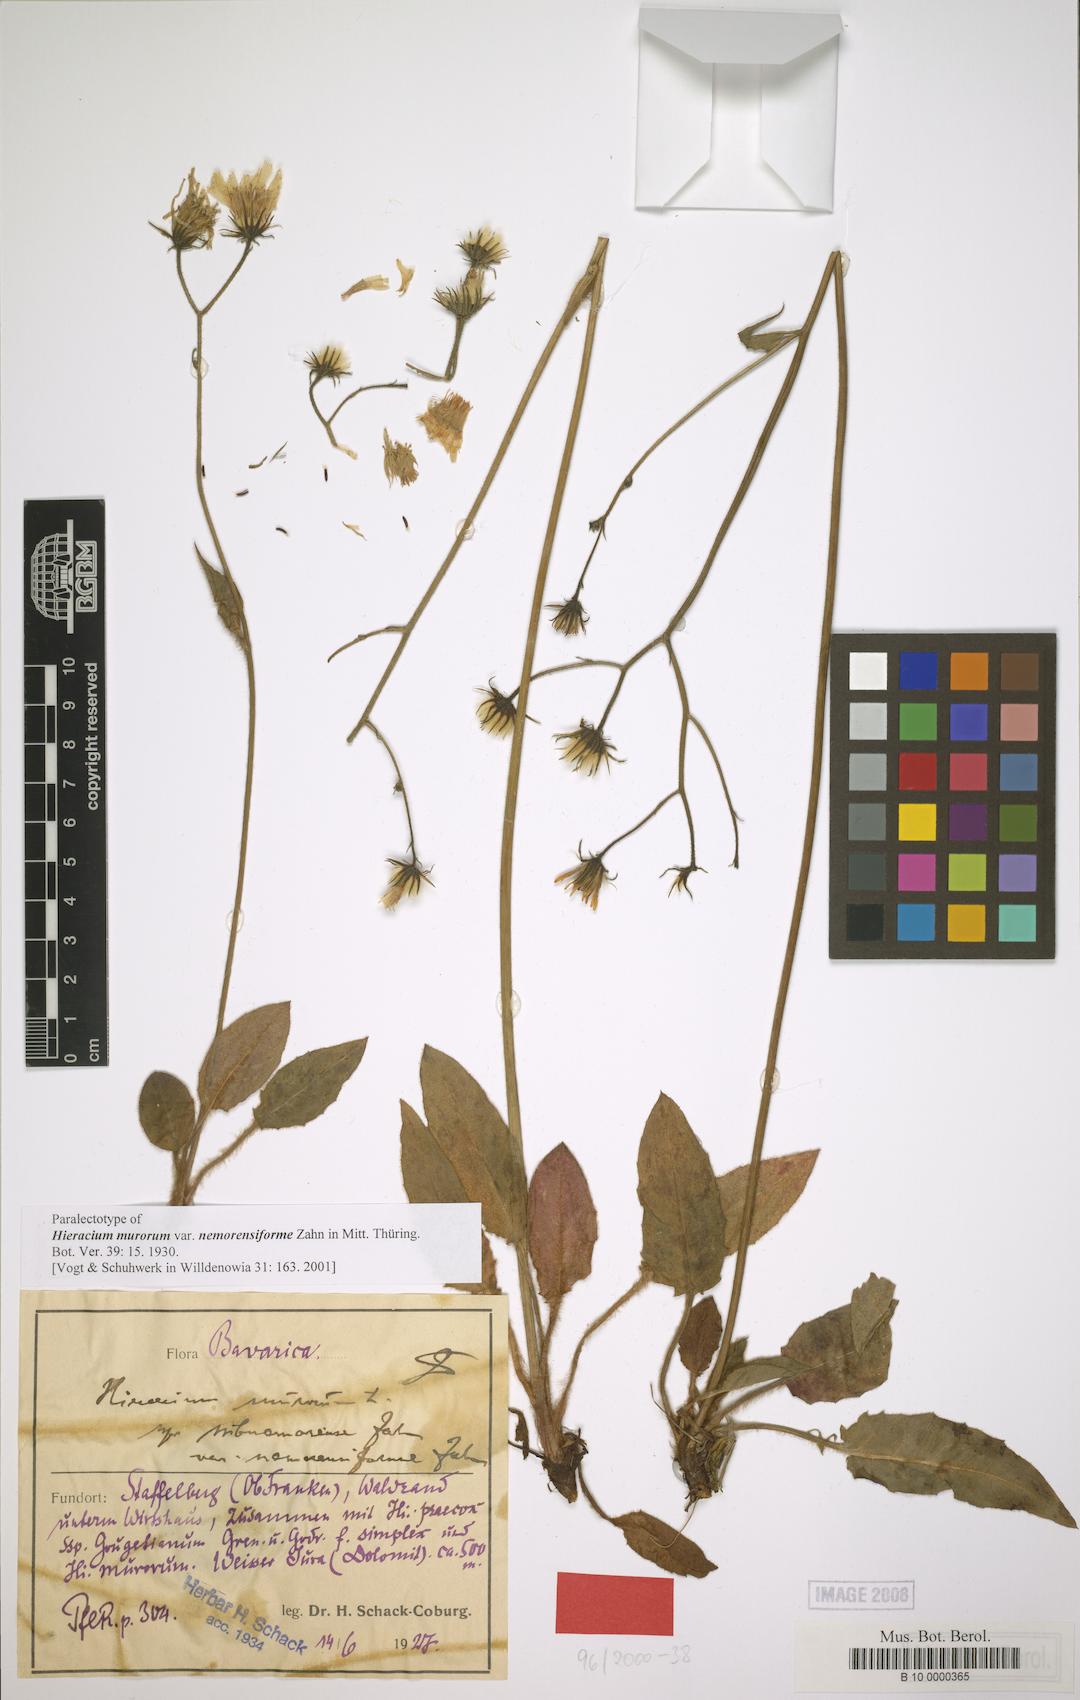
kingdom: Plantae
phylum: Tracheophyta
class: Magnoliopsida
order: Asterales
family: Asteraceae
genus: Hieracium
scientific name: Hieracium murorum
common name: Wall hawkweed
